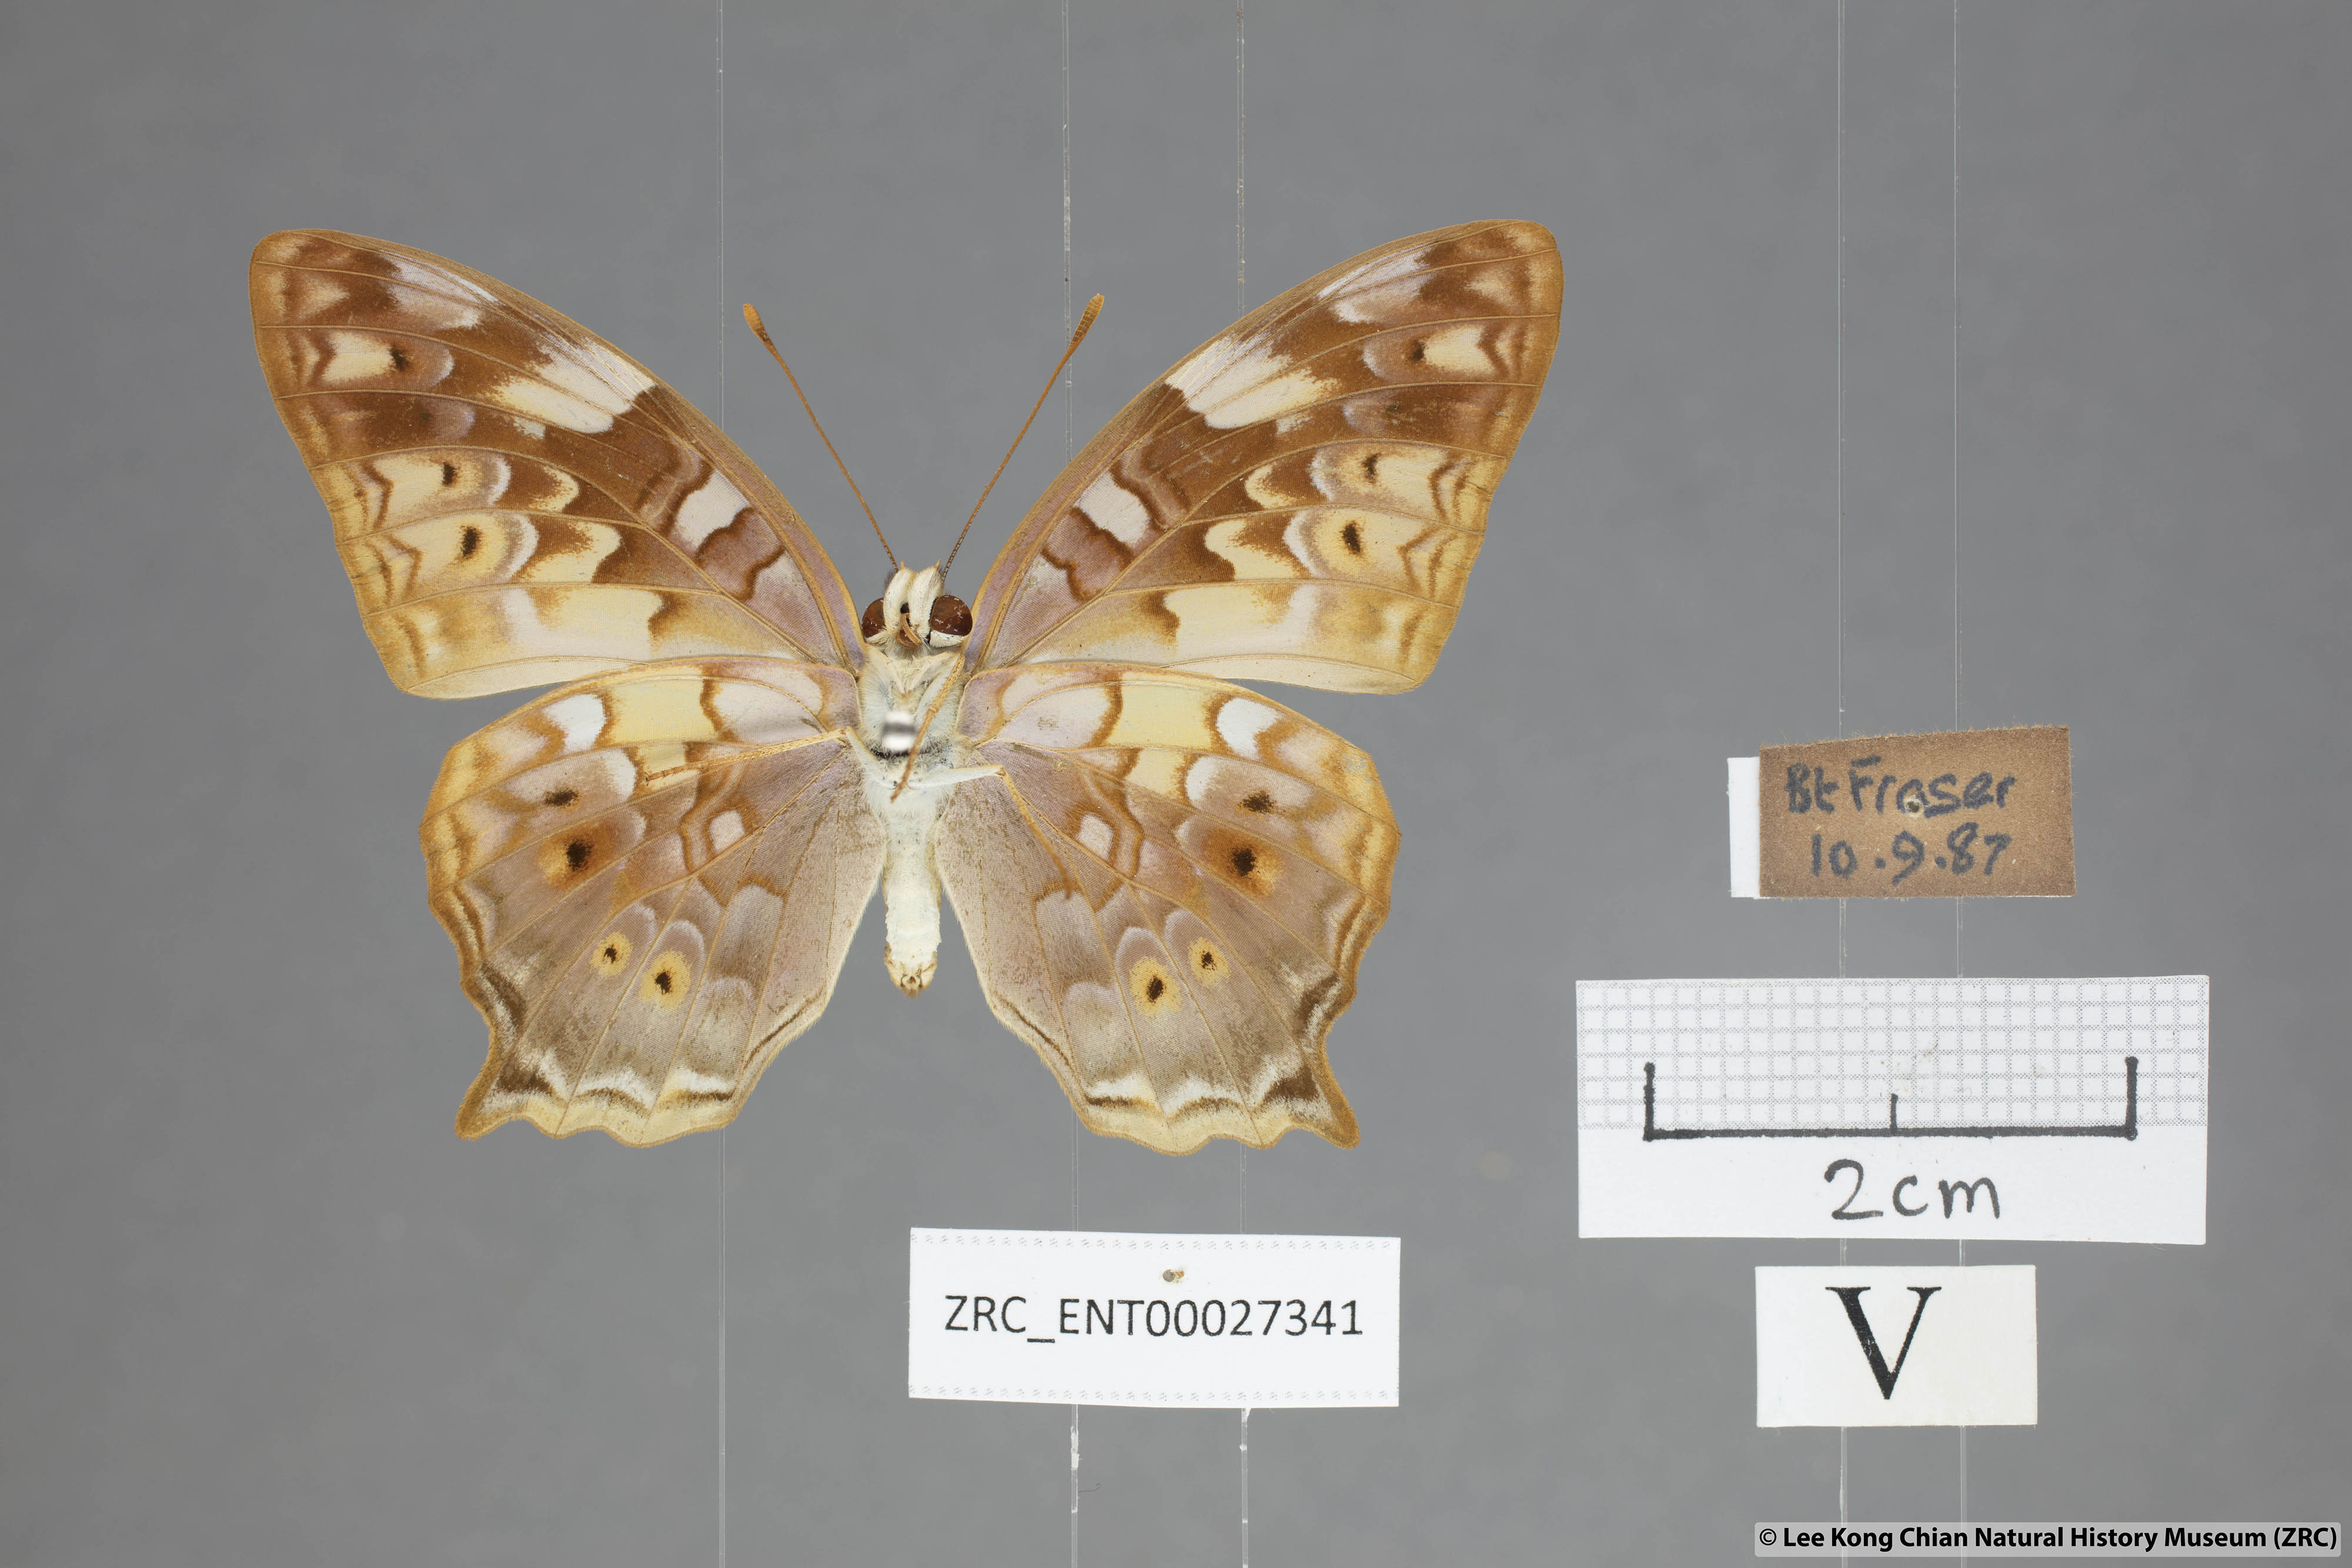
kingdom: Animalia
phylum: Arthropoda
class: Insecta
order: Lepidoptera
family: Nymphalidae
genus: Vagrans
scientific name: Vagrans egista
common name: Tailed rustic
